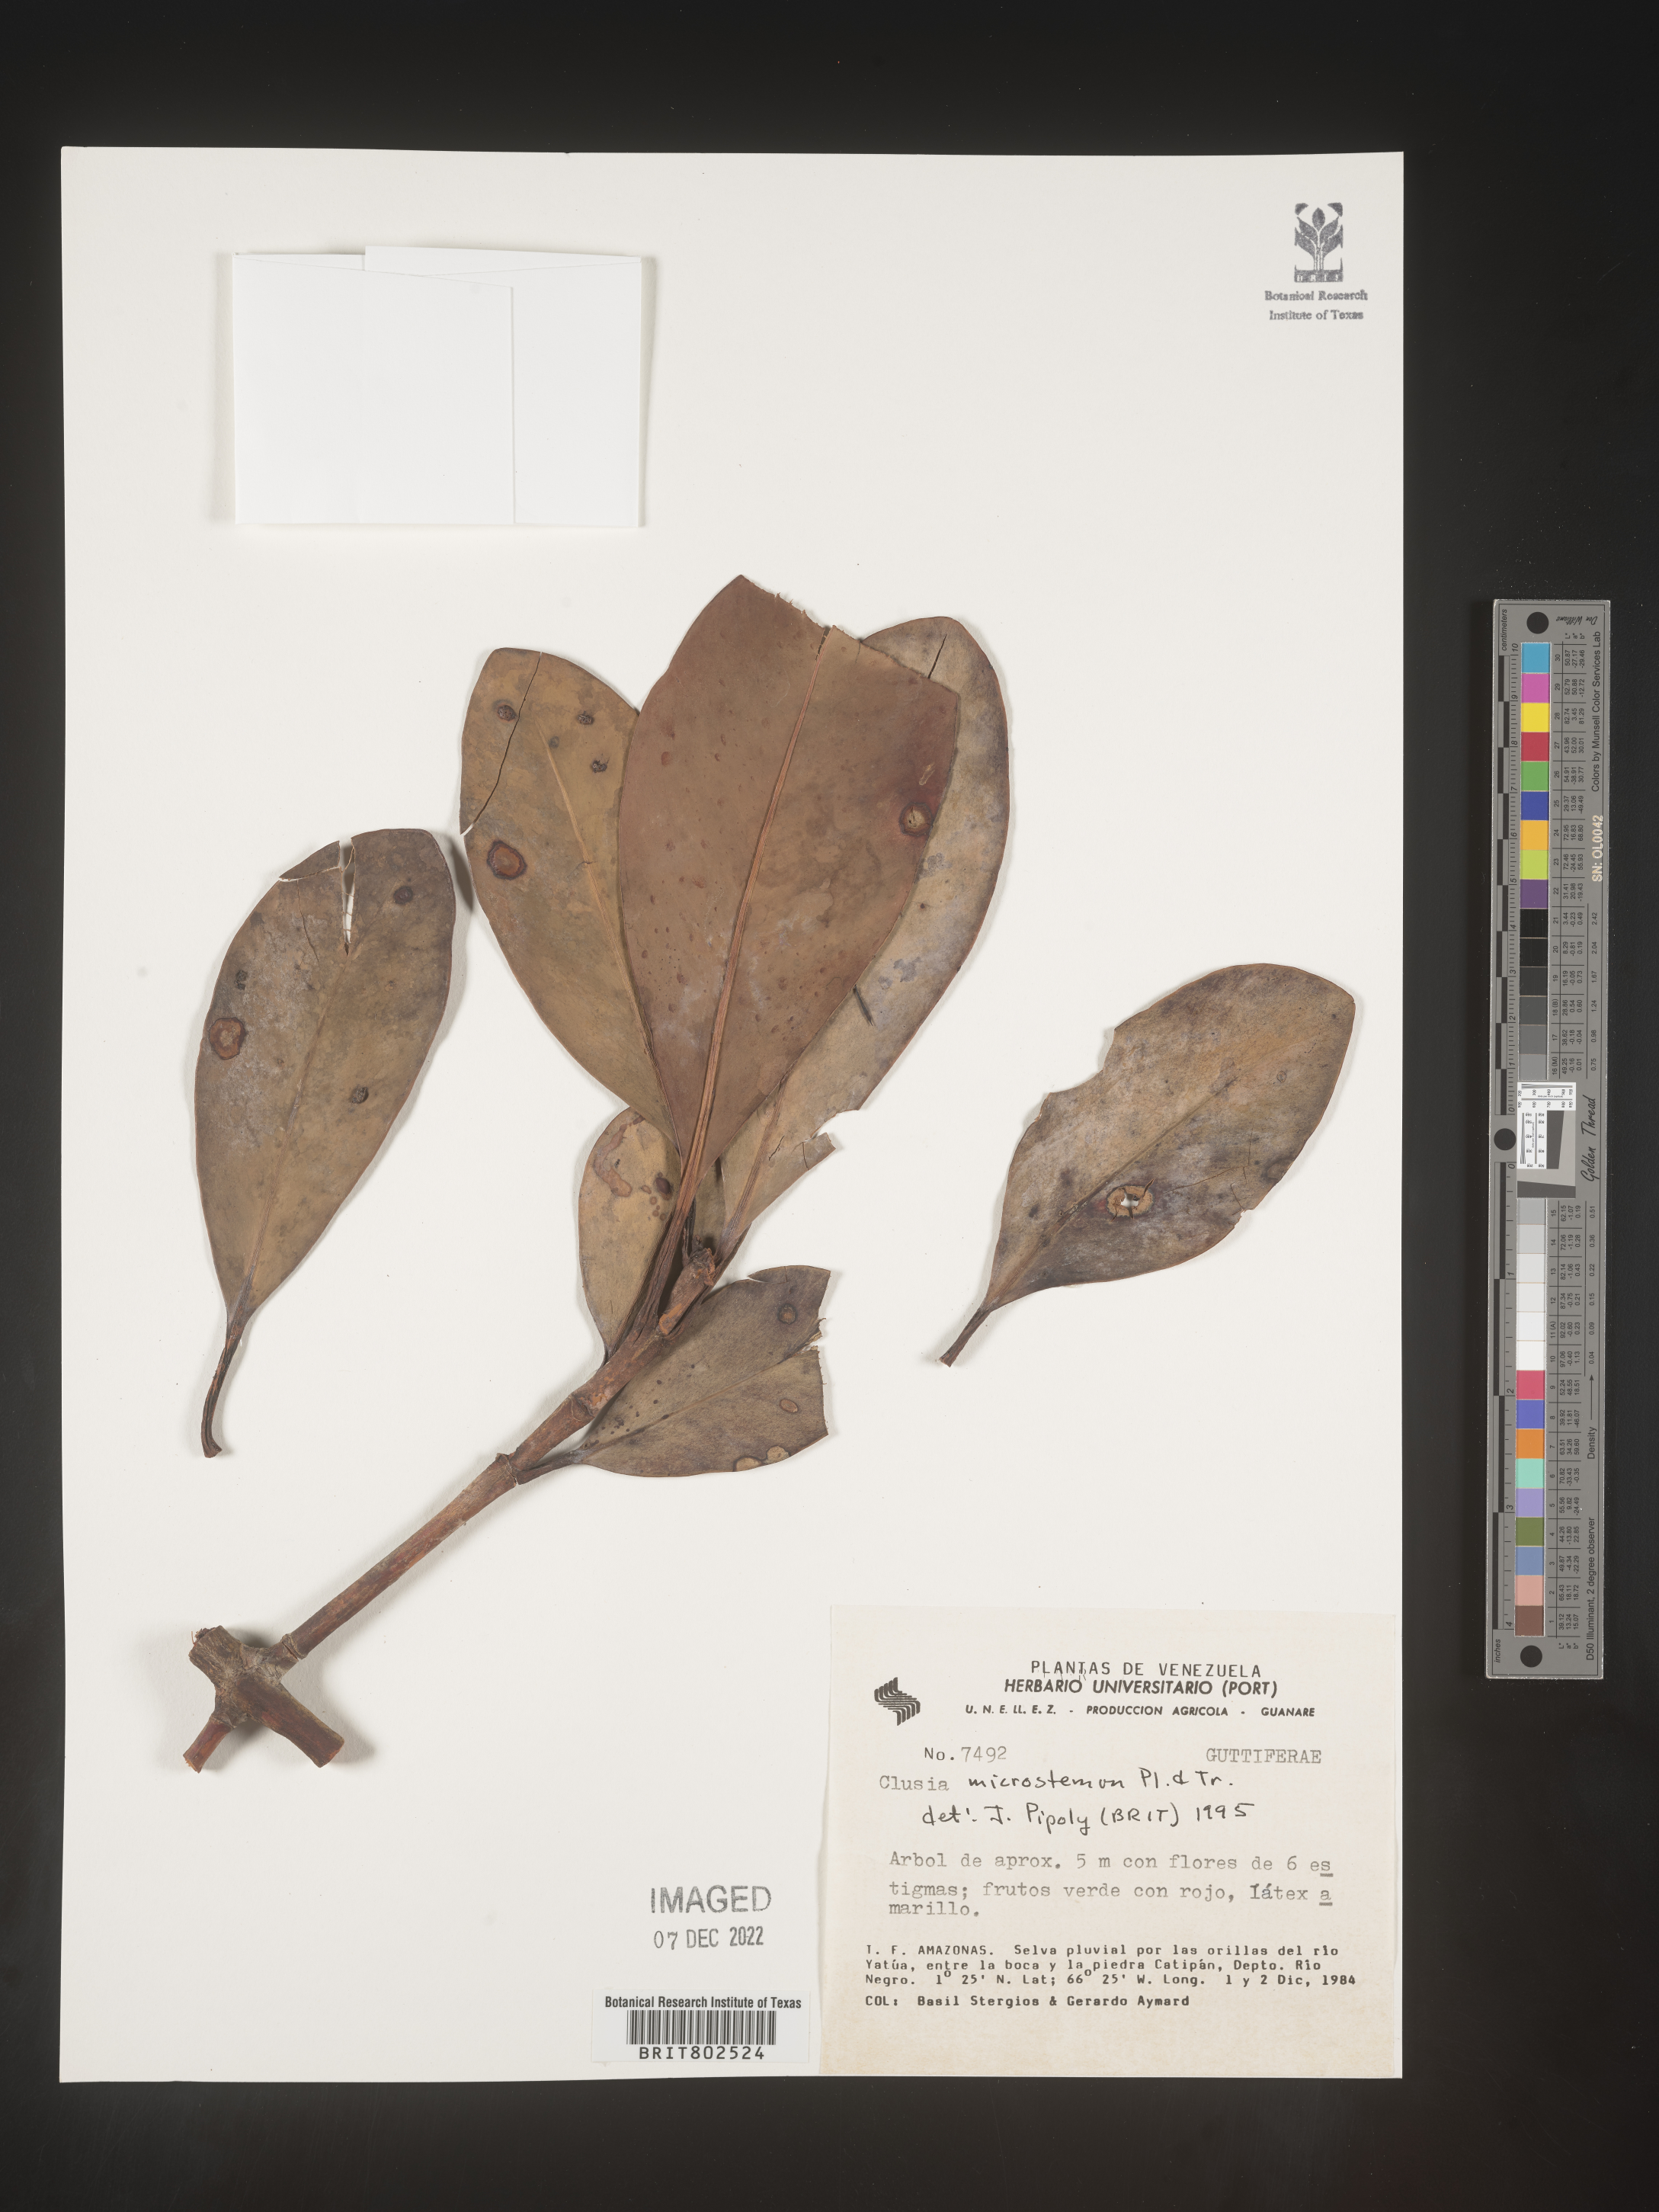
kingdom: Plantae
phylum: Tracheophyta
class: Magnoliopsida
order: Malpighiales
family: Clusiaceae
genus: Clusia
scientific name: Clusia microstemon
